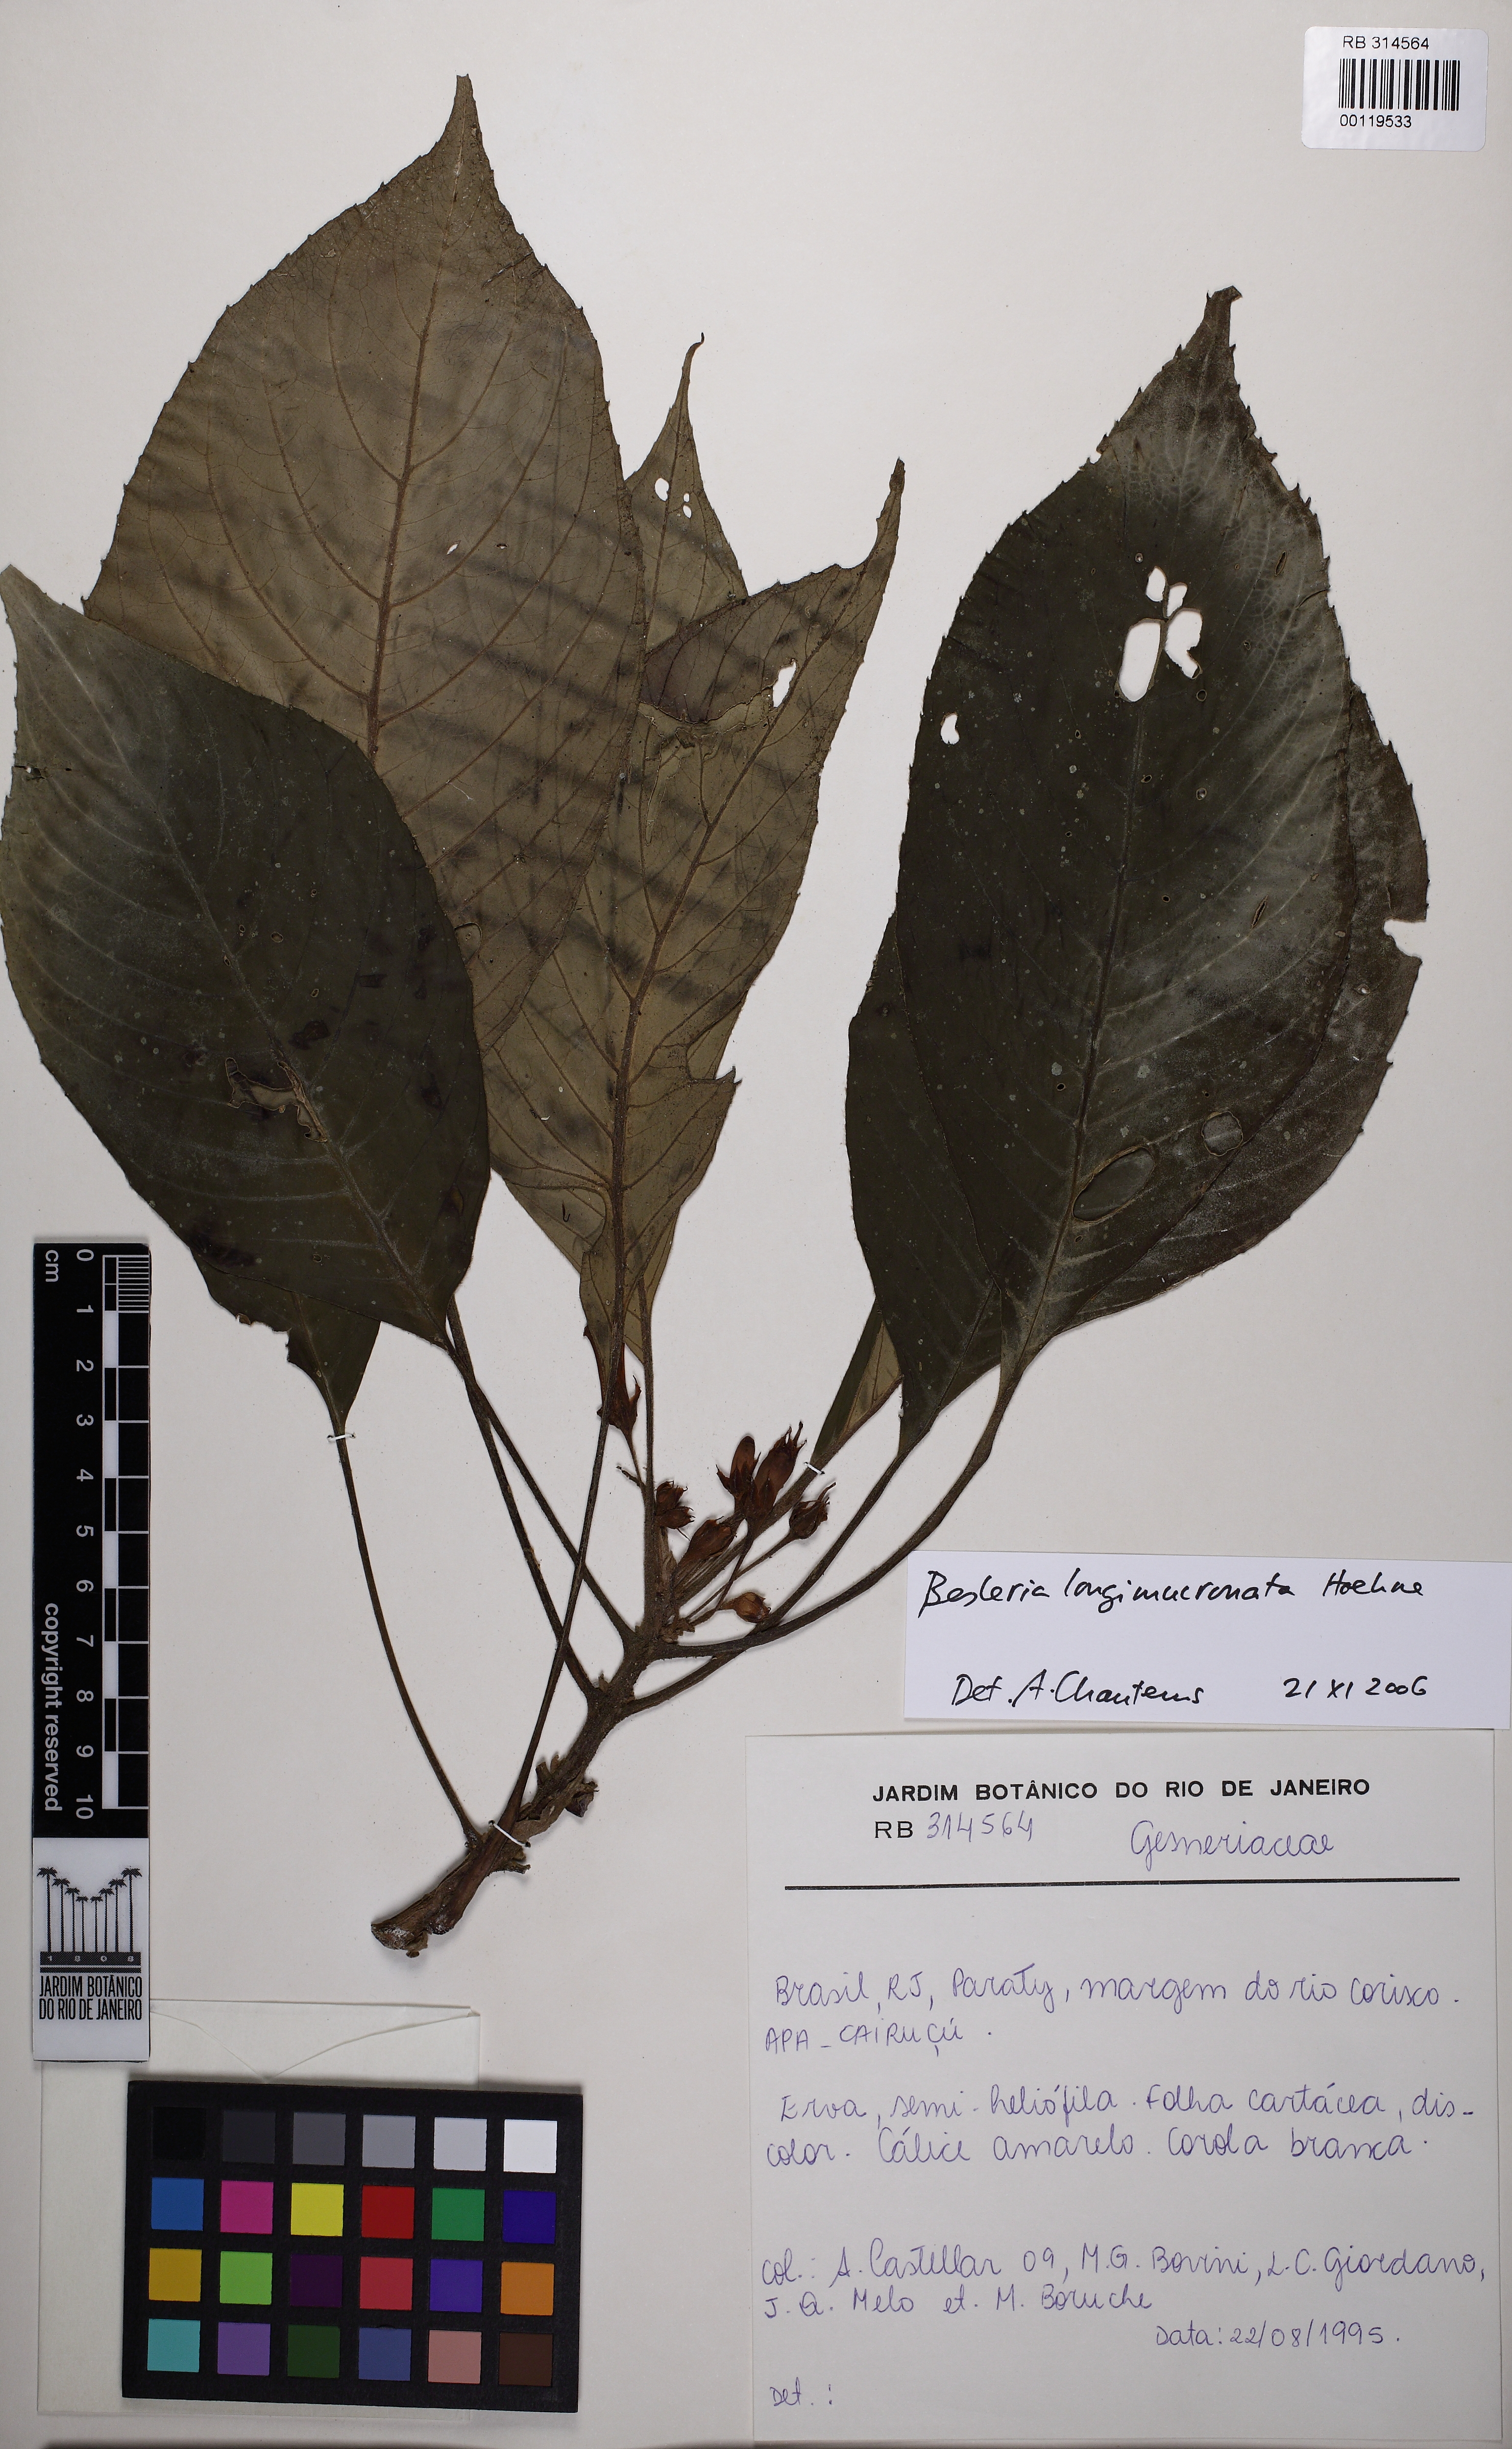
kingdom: Plantae
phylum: Tracheophyta
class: Magnoliopsida
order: Lamiales
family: Gesneriaceae
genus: Besleria
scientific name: Besleria longimucronata
